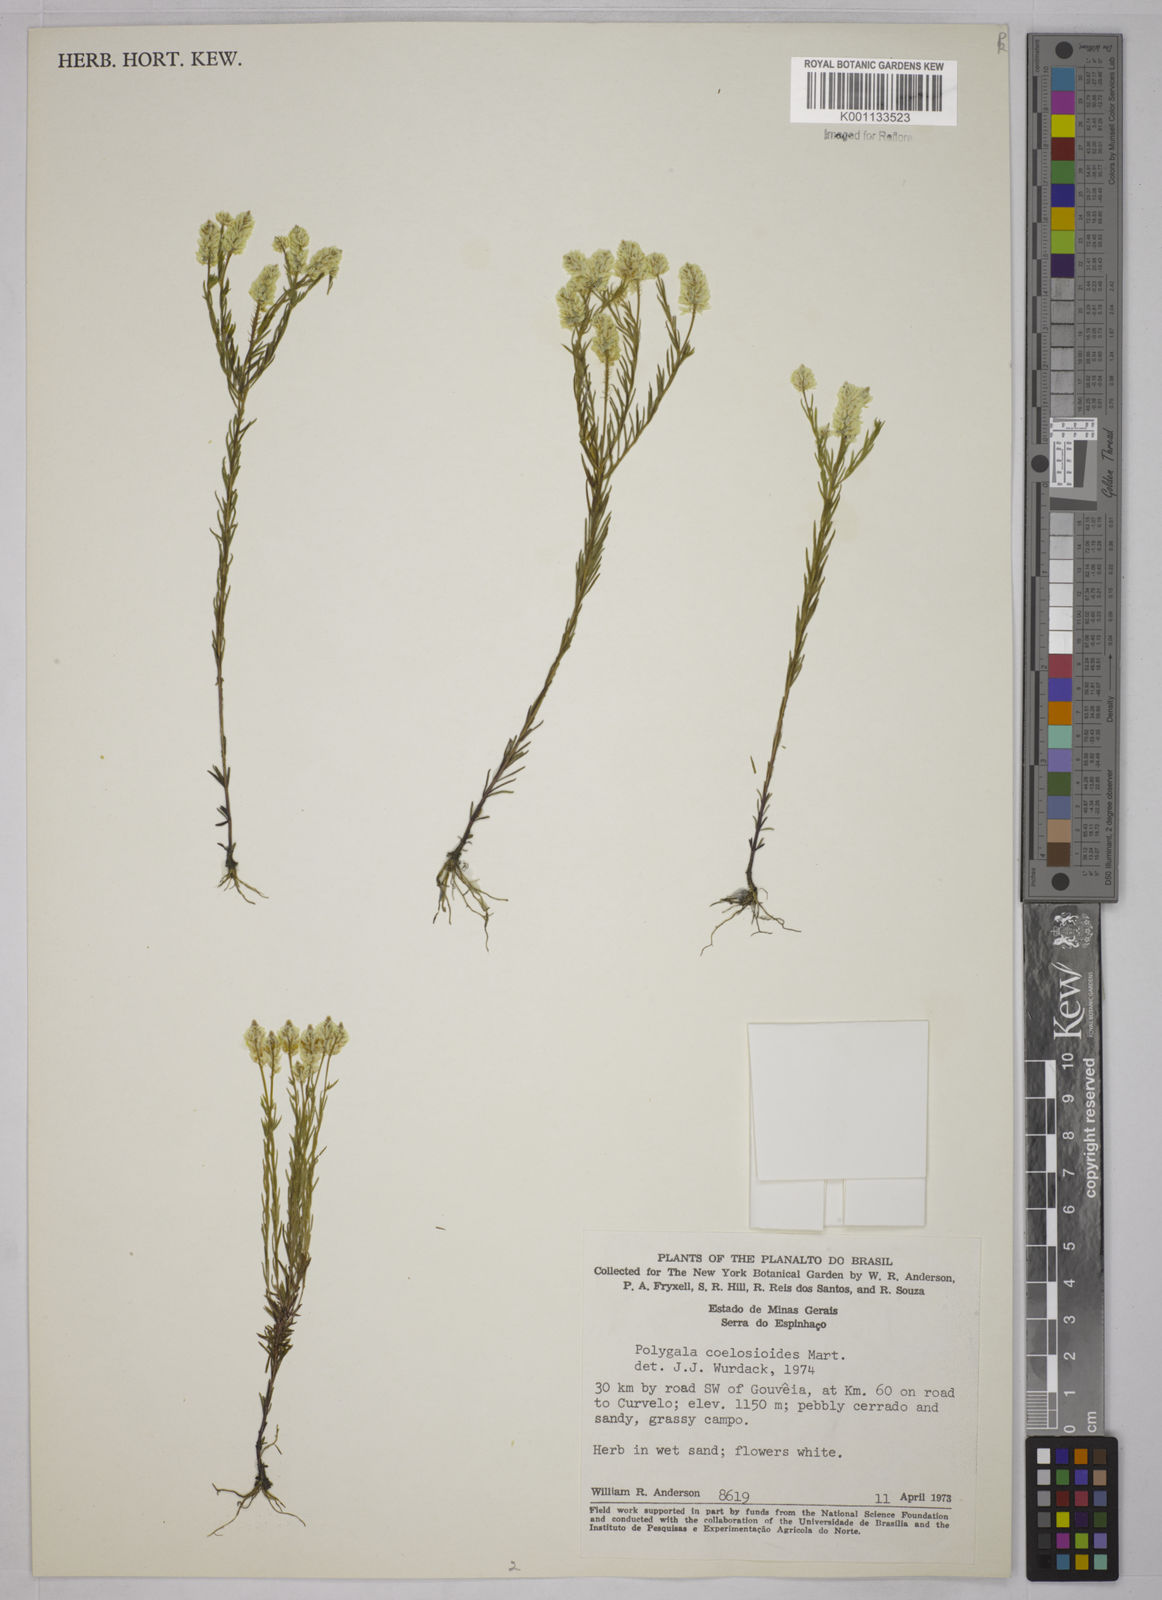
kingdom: Plantae
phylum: Tracheophyta
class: Magnoliopsida
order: Fabales
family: Polygalaceae
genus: Polygala
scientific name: Polygala celosioides
